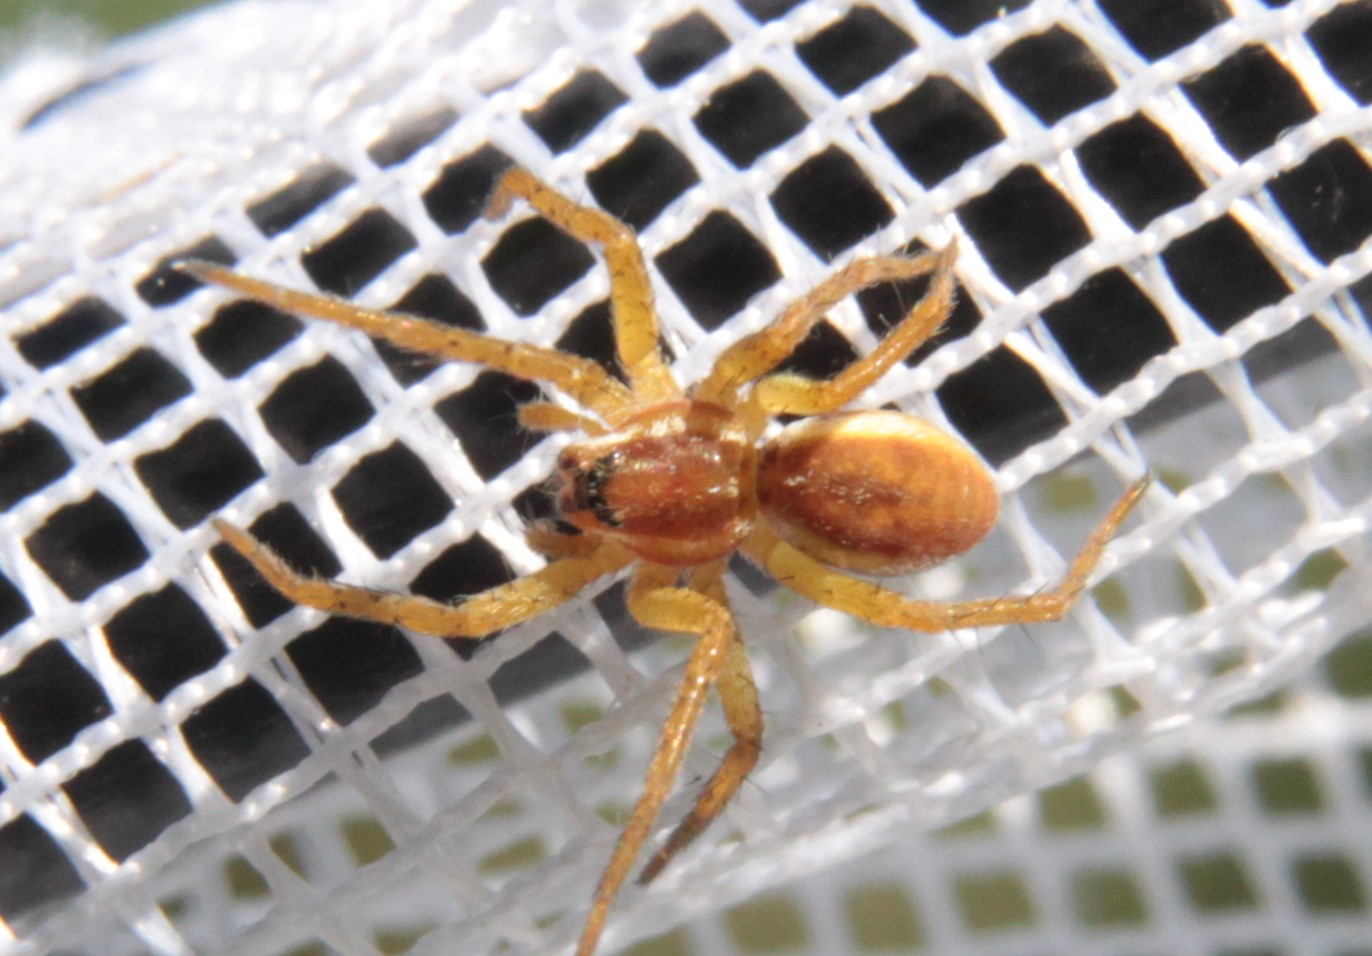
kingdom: Animalia
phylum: Arthropoda
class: Arachnida
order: Araneae
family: Pisauridae
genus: Dolomedes
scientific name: Dolomedes fimbriatus
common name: Raft spider
